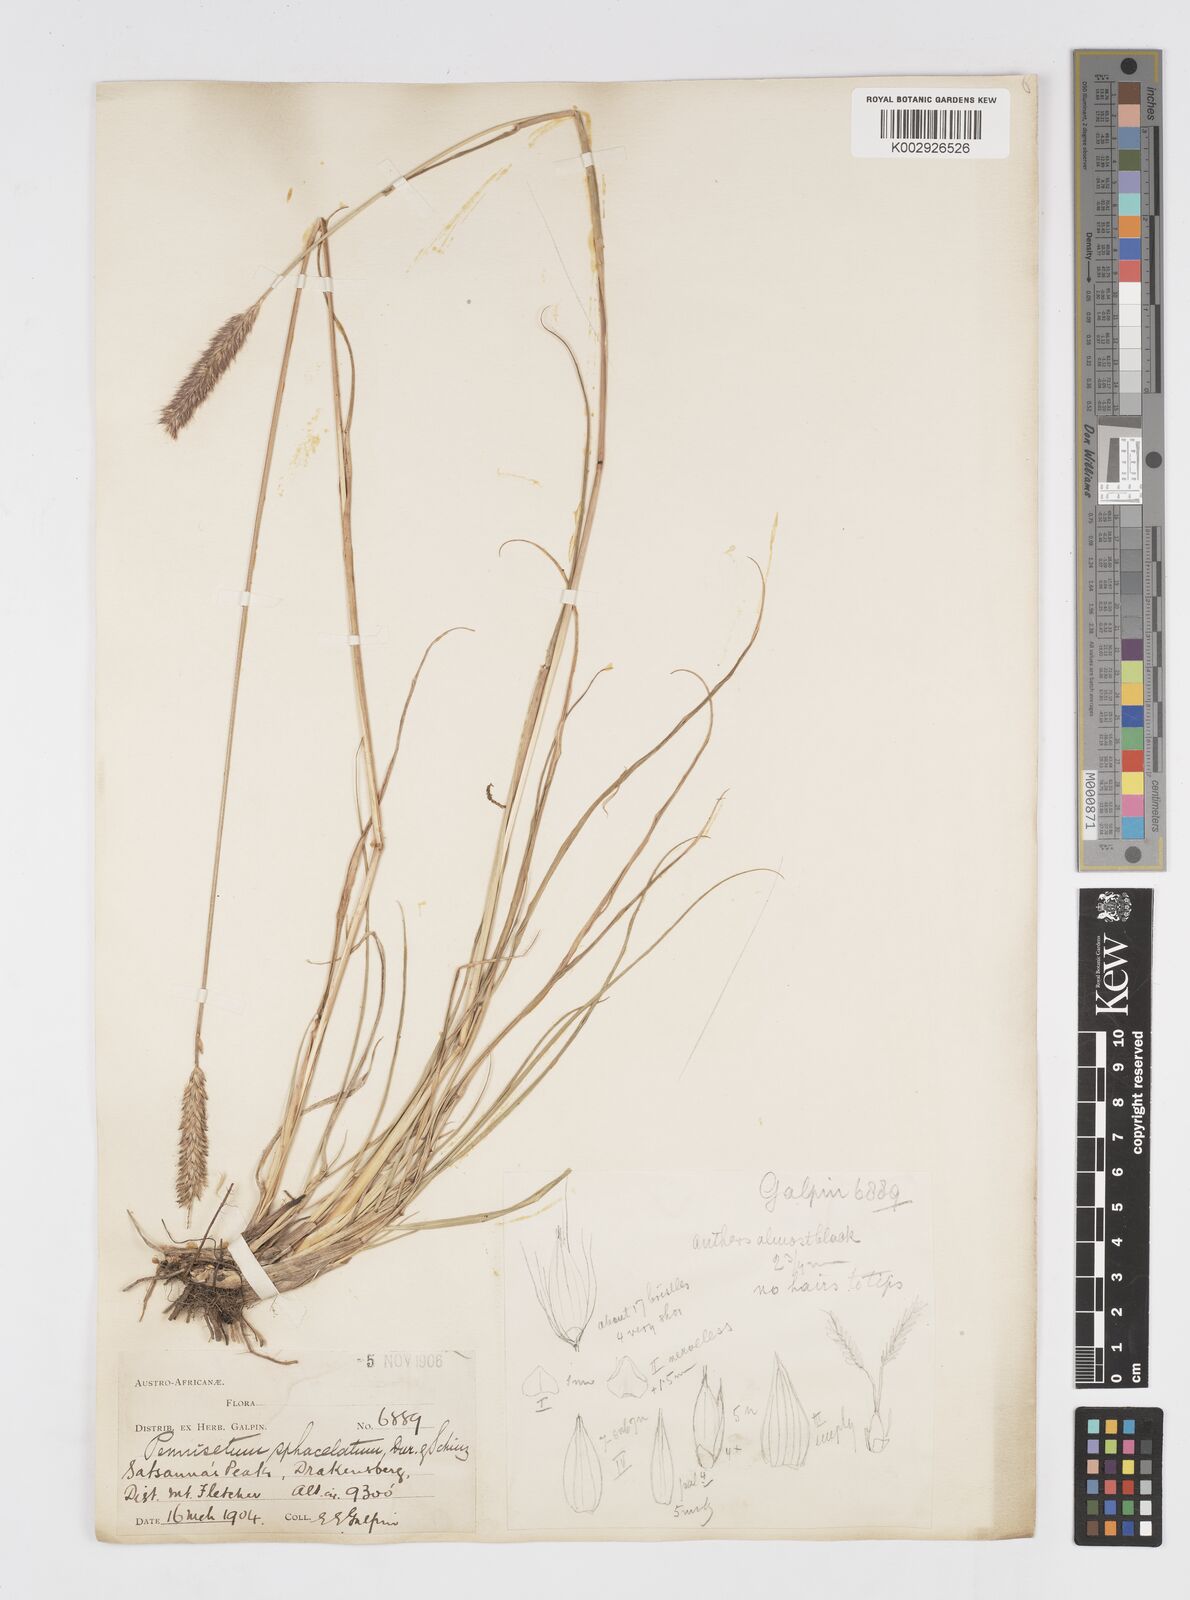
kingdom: Plantae
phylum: Tracheophyta
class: Liliopsida
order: Poales
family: Poaceae
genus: Cenchrus
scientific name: Cenchrus sphacelatus
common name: Bulgras
